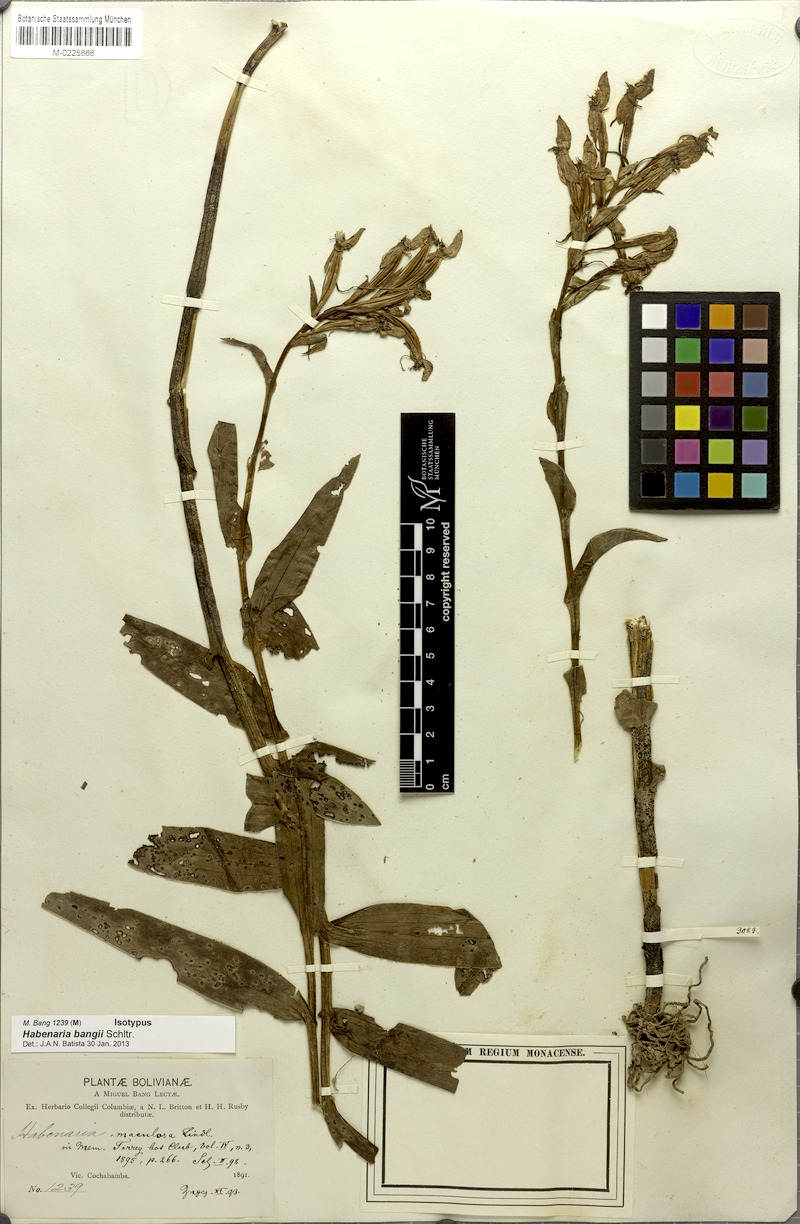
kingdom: Plantae
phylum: Tracheophyta
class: Liliopsida
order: Asparagales
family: Orchidaceae
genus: Habenaria
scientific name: Habenaria bangii
